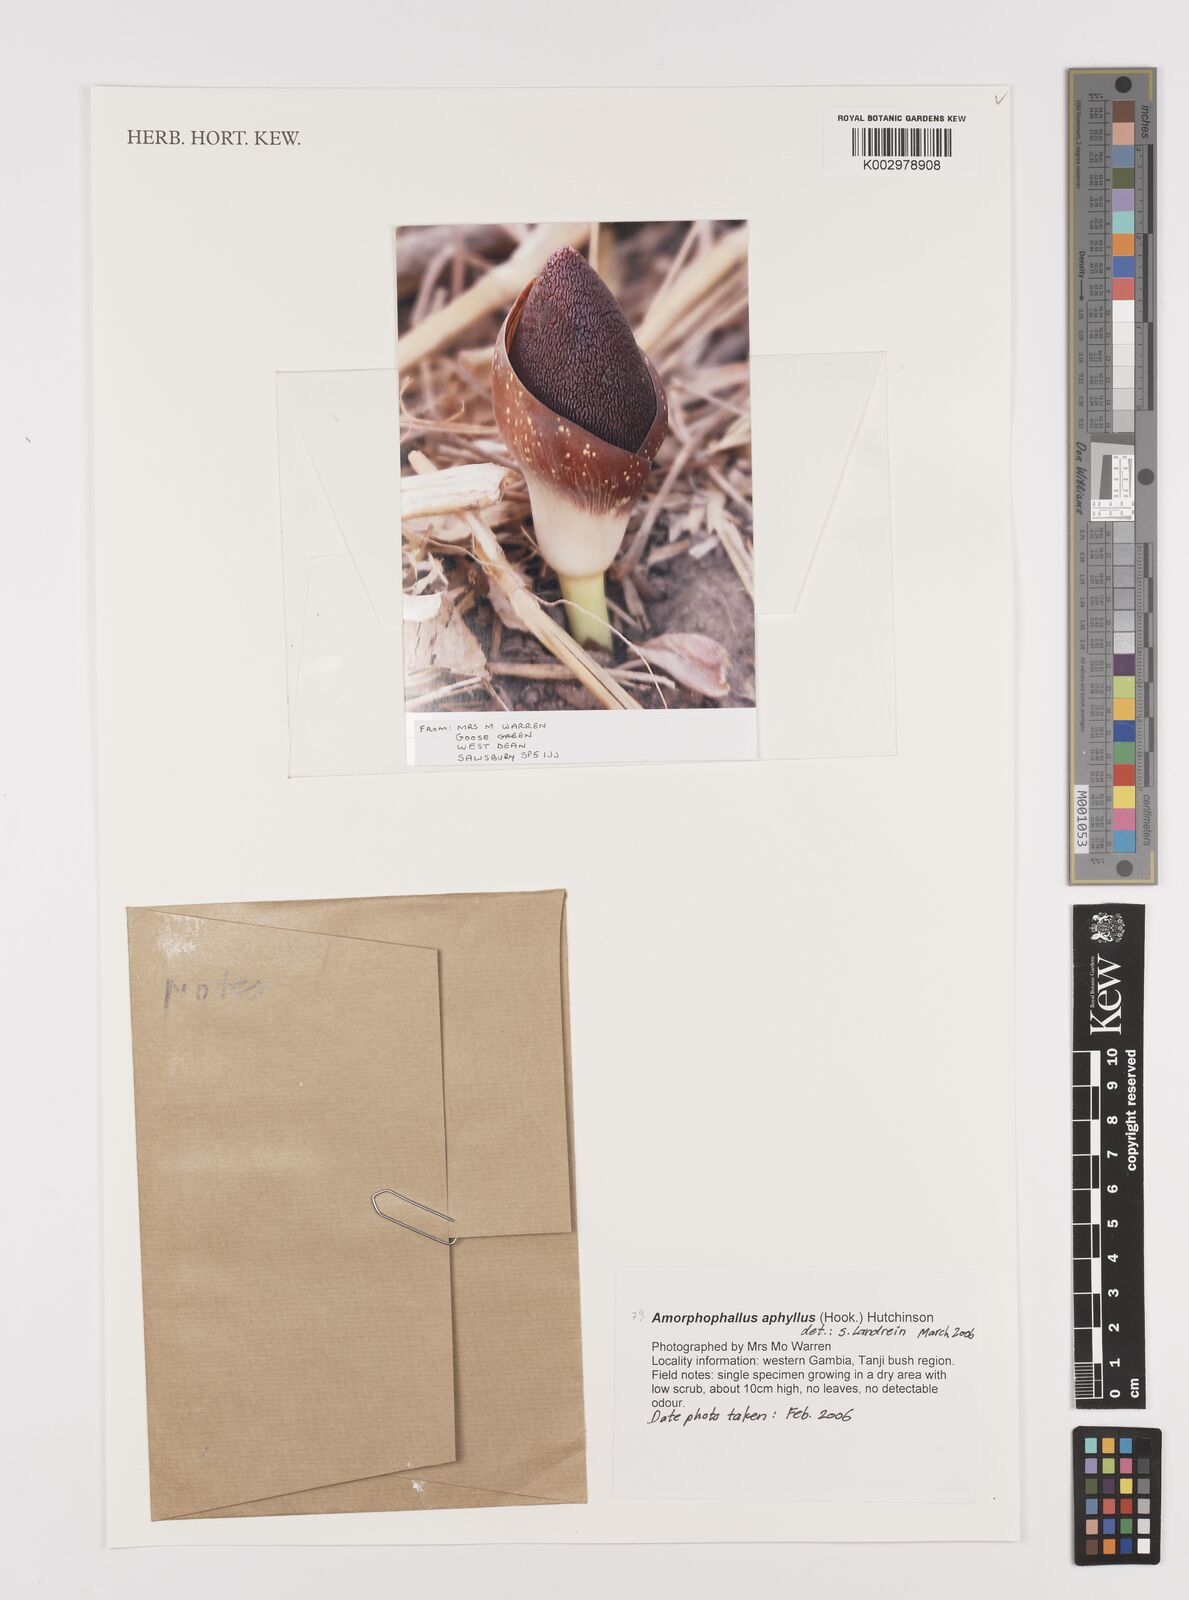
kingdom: Plantae
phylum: Tracheophyta
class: Liliopsida
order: Alismatales
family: Araceae
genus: Amorphophallus
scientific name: Amorphophallus aphyllus
